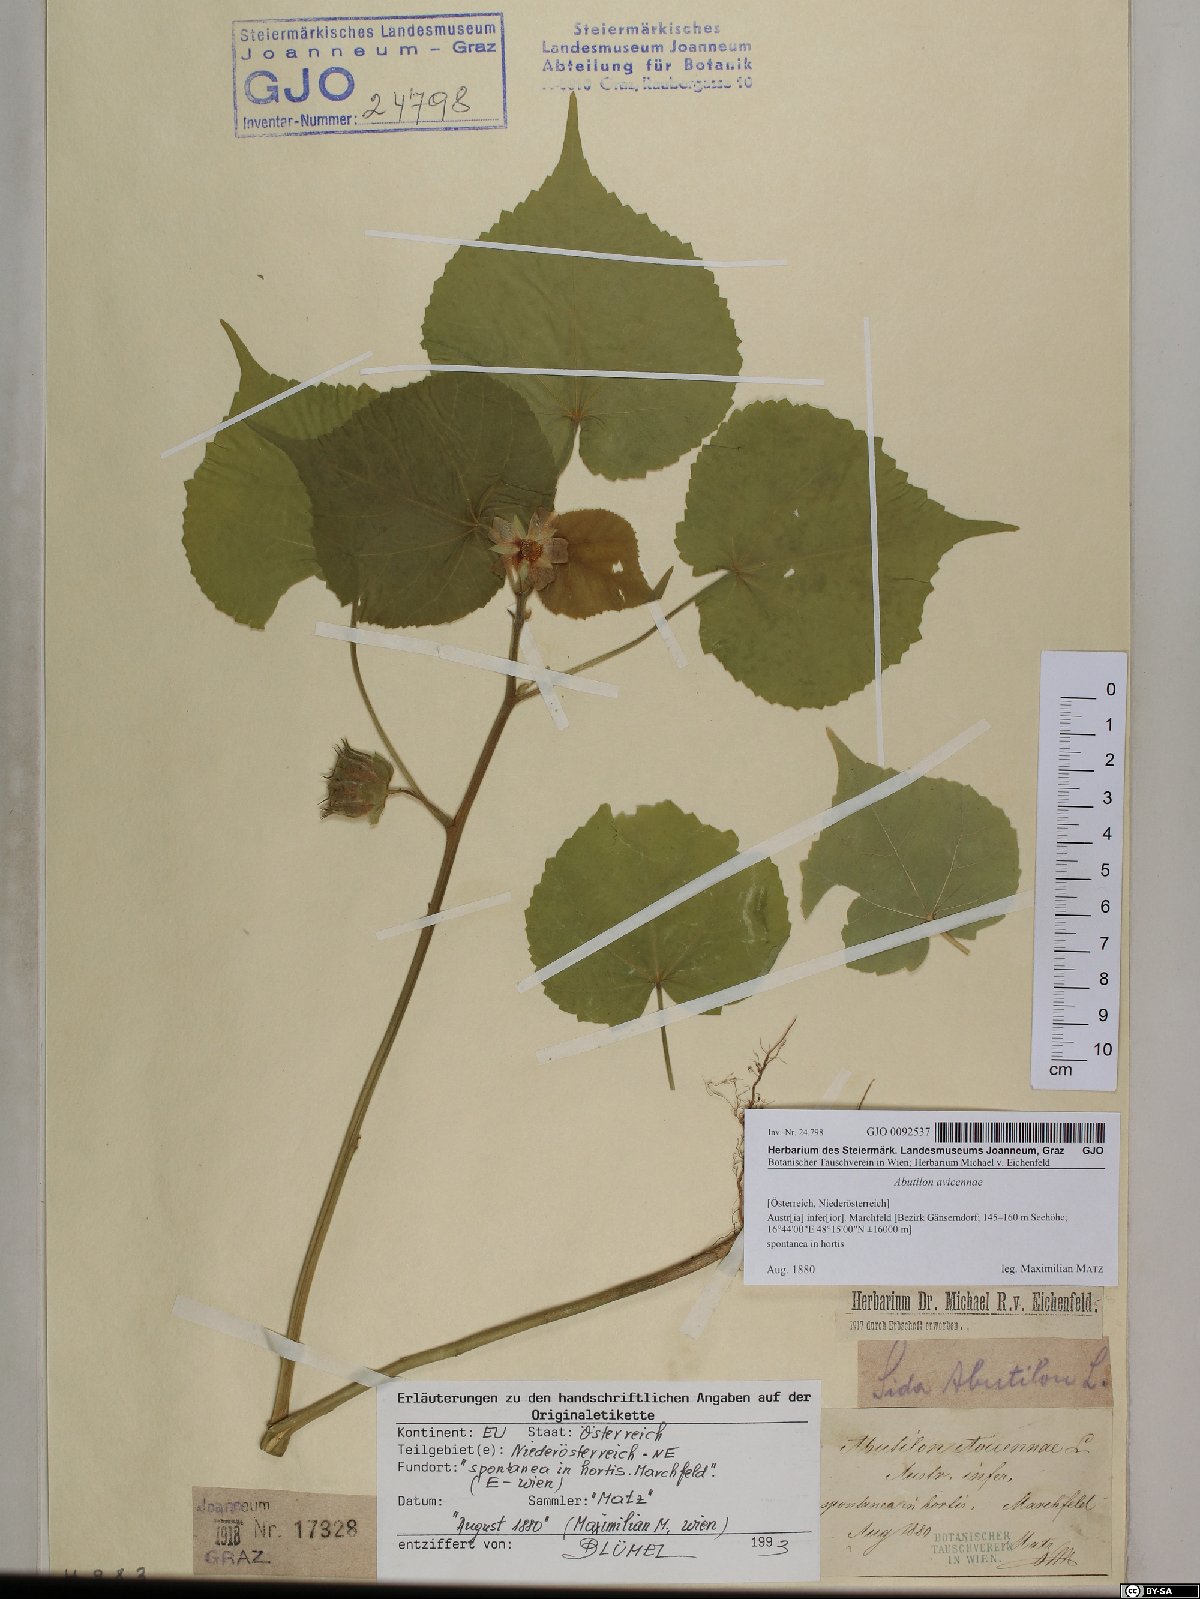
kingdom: Plantae
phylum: Tracheophyta
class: Magnoliopsida
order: Malvales
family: Malvaceae
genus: Abutilon
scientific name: Abutilon theophrasti
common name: Velvetleaf
